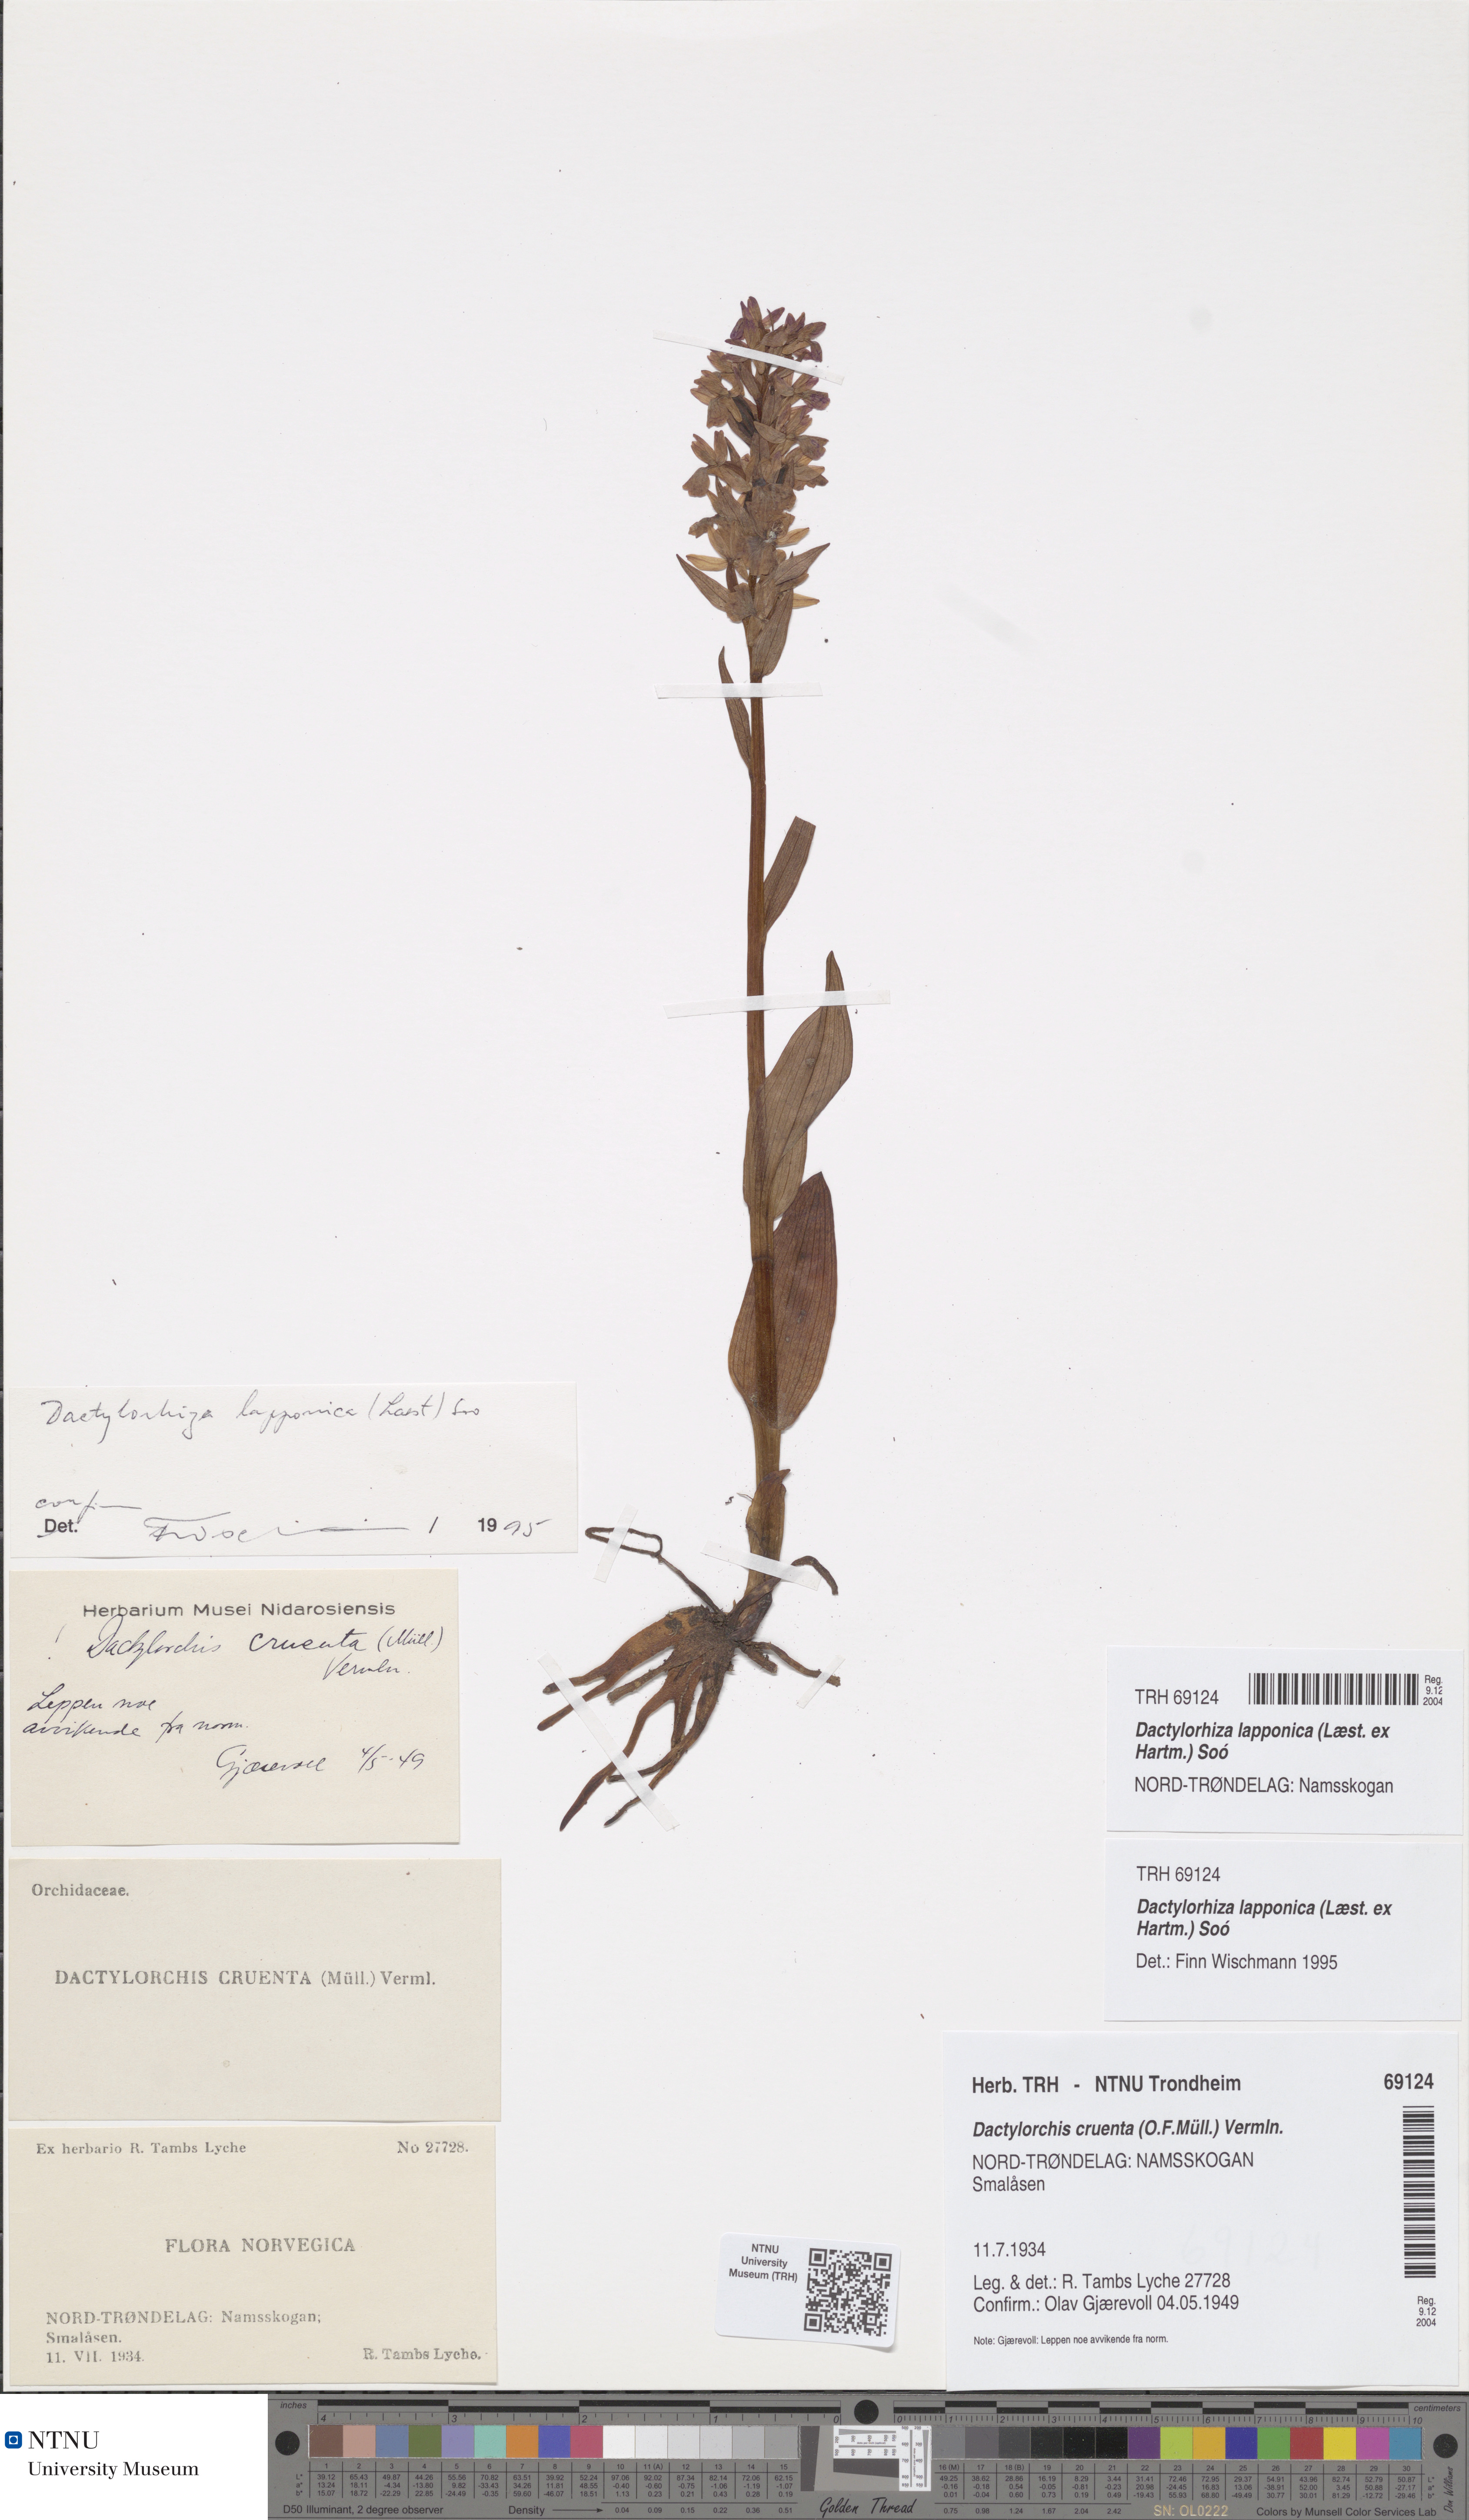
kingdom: Plantae
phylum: Tracheophyta
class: Liliopsida
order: Asparagales
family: Orchidaceae
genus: Dactylorhiza
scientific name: Dactylorhiza majalis
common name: Marsh orchid
